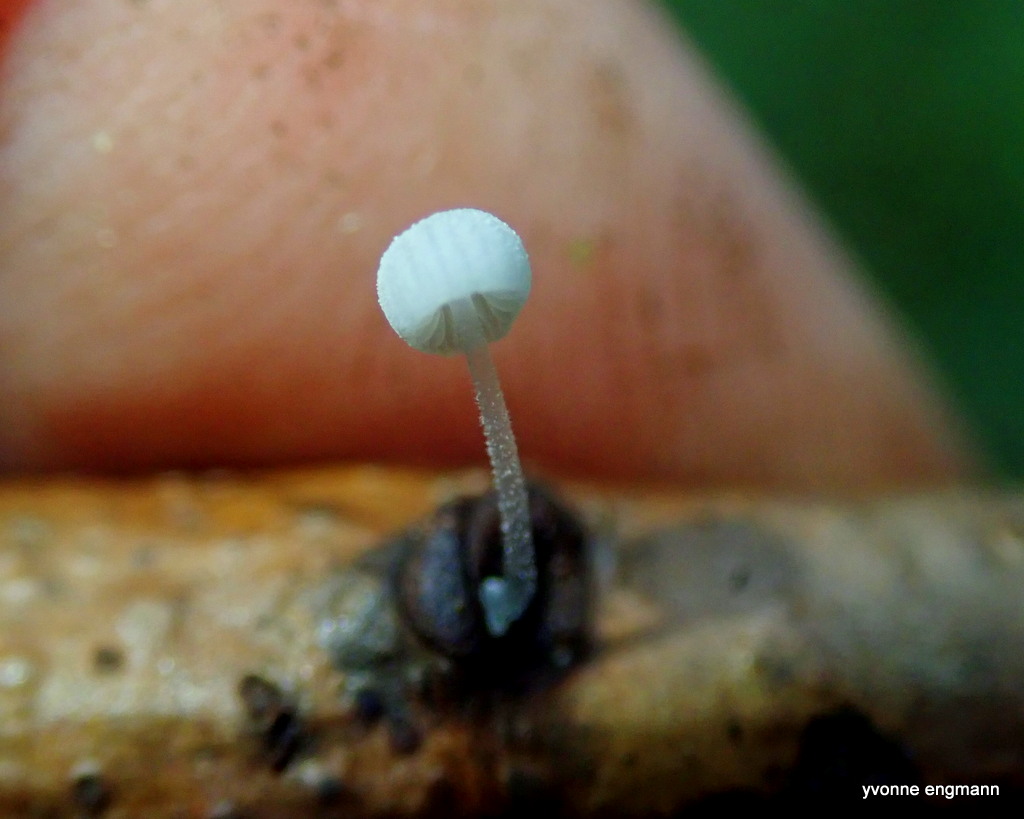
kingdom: Fungi
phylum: Basidiomycota
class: Agaricomycetes
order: Agaricales
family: Mycenaceae
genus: Mycena
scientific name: Mycena tenerrima
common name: pudret huesvamp
